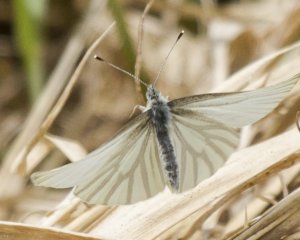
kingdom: Animalia
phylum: Arthropoda
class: Insecta
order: Lepidoptera
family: Pieridae
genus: Pieris
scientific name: Pieris oleracea
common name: Mustard White
